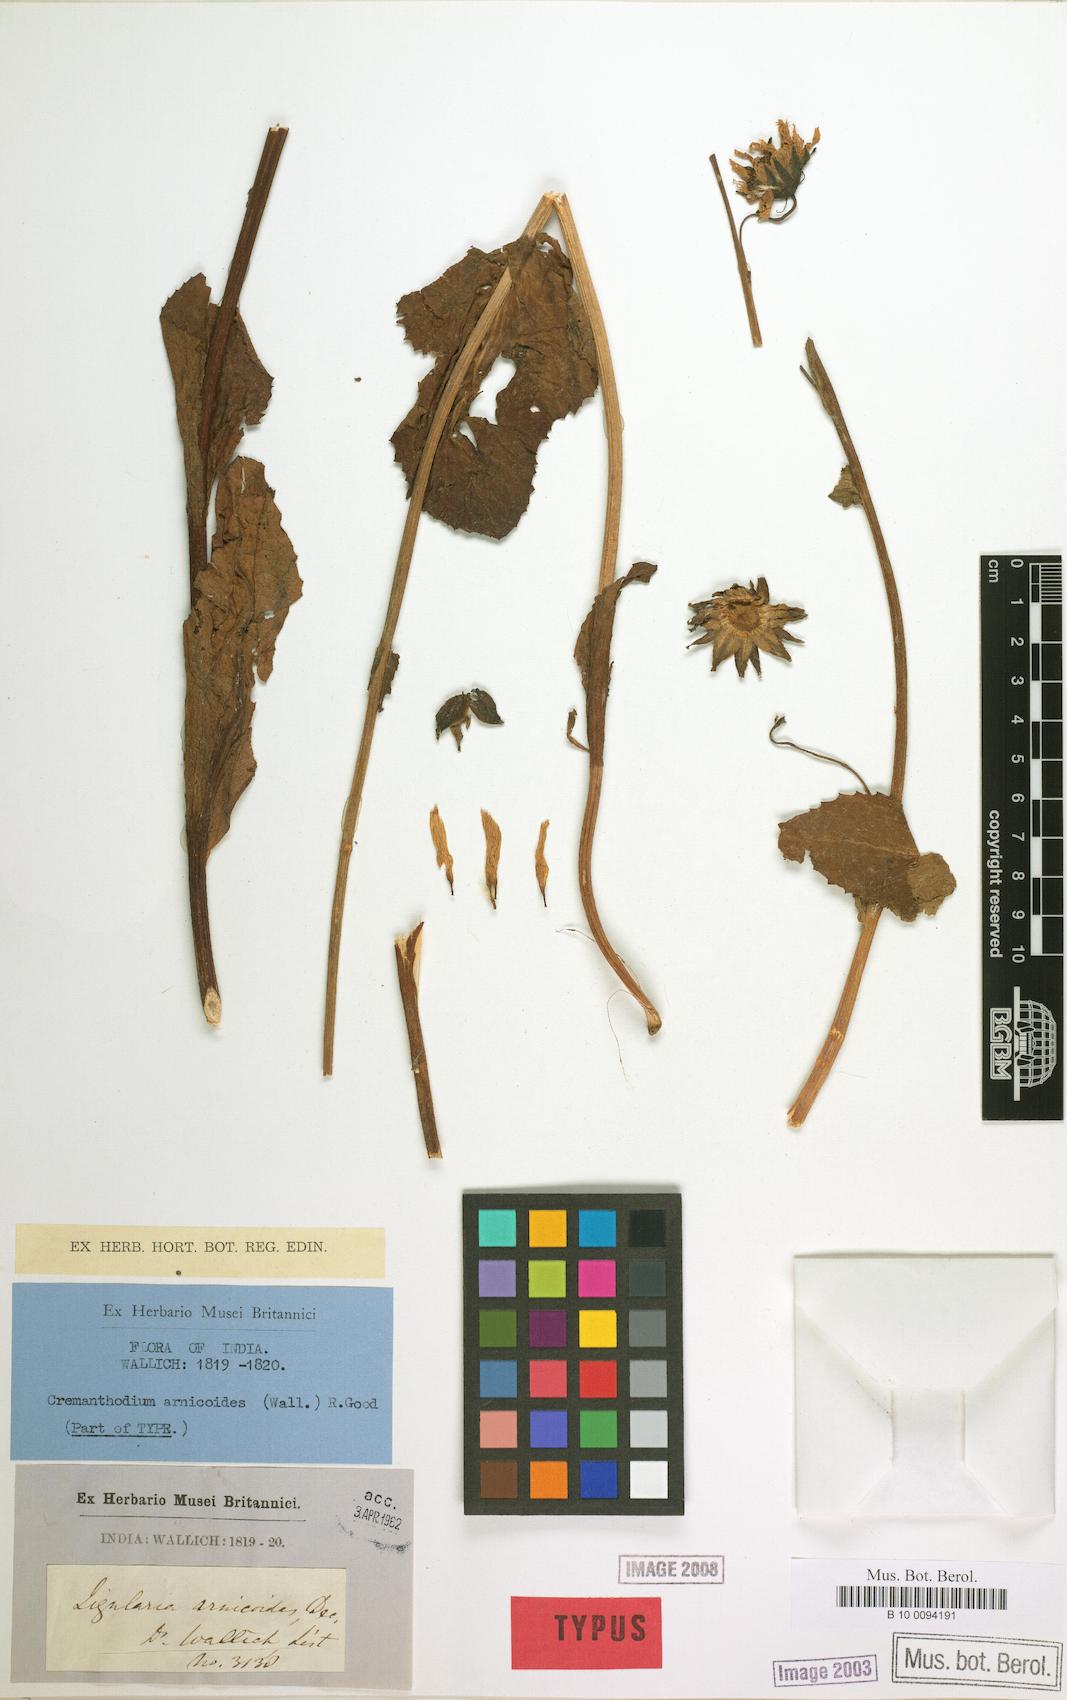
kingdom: Plantae
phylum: Tracheophyta
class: Magnoliopsida
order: Asterales
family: Asteraceae
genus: Cremanthodium
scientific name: Cremanthodium arnicoides
